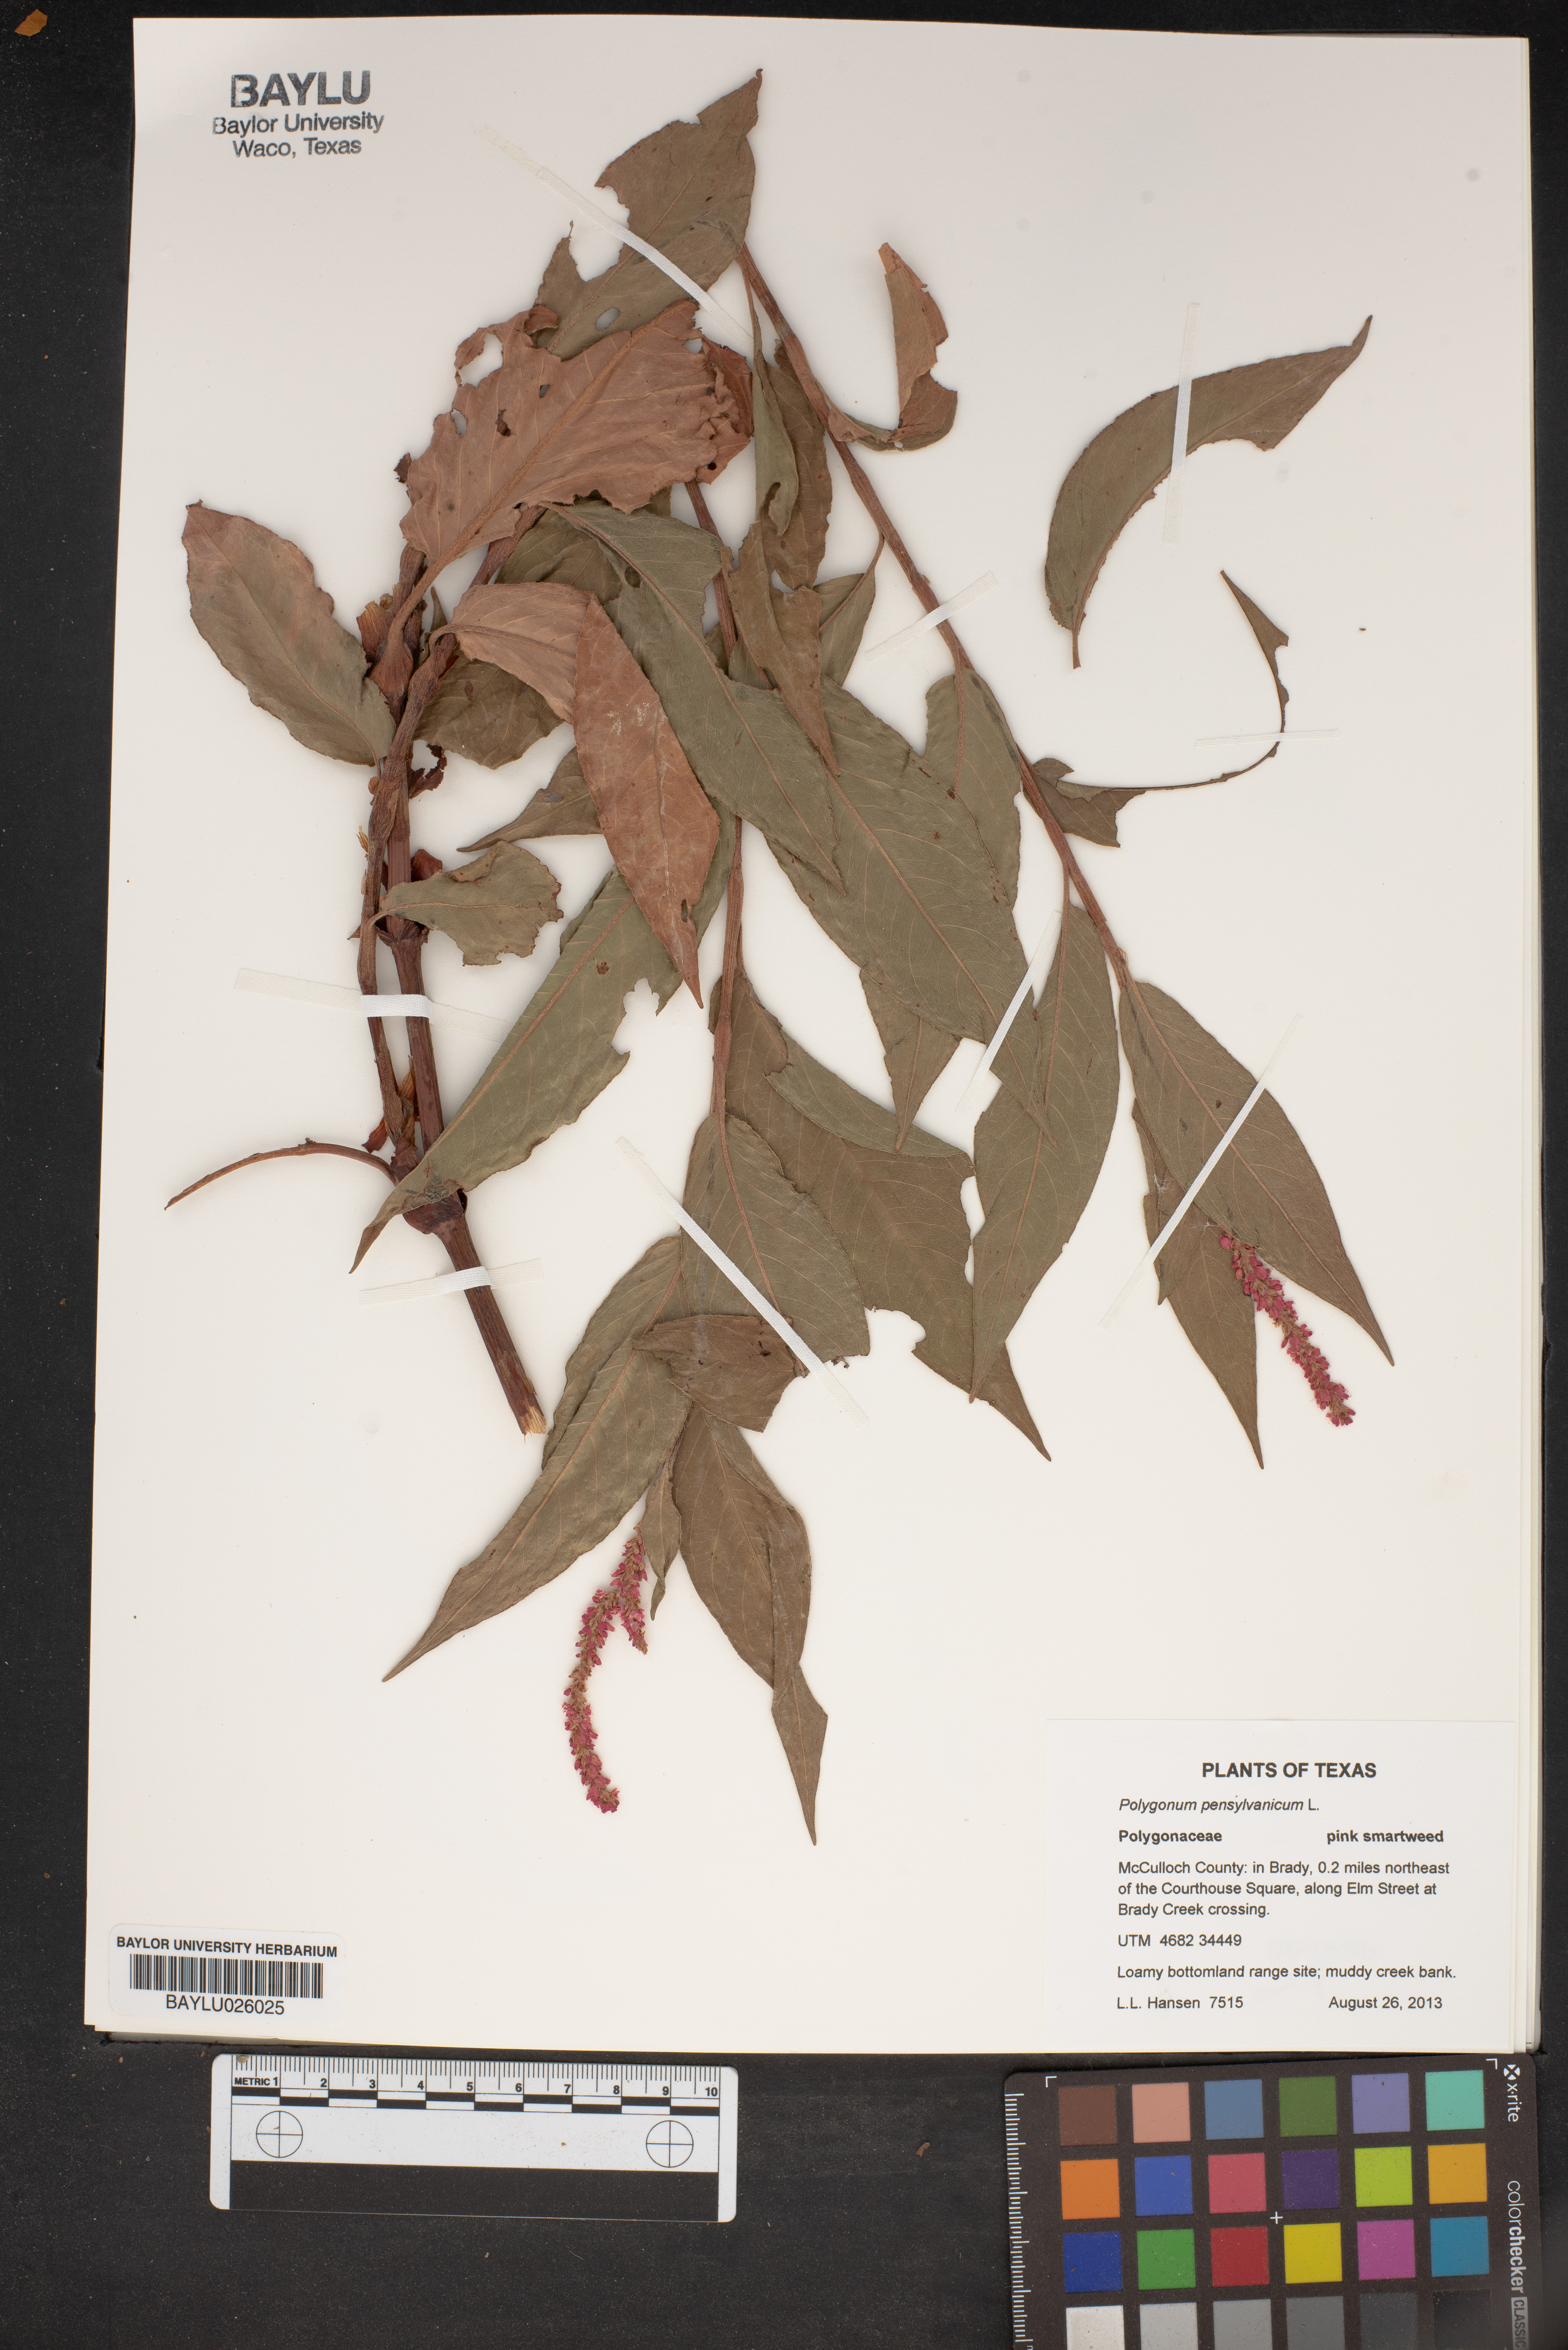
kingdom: Plantae
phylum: Tracheophyta
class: Magnoliopsida
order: Caryophyllales
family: Polygonaceae
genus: Persicaria
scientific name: Persicaria pensylvanica
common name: Pinkweed
